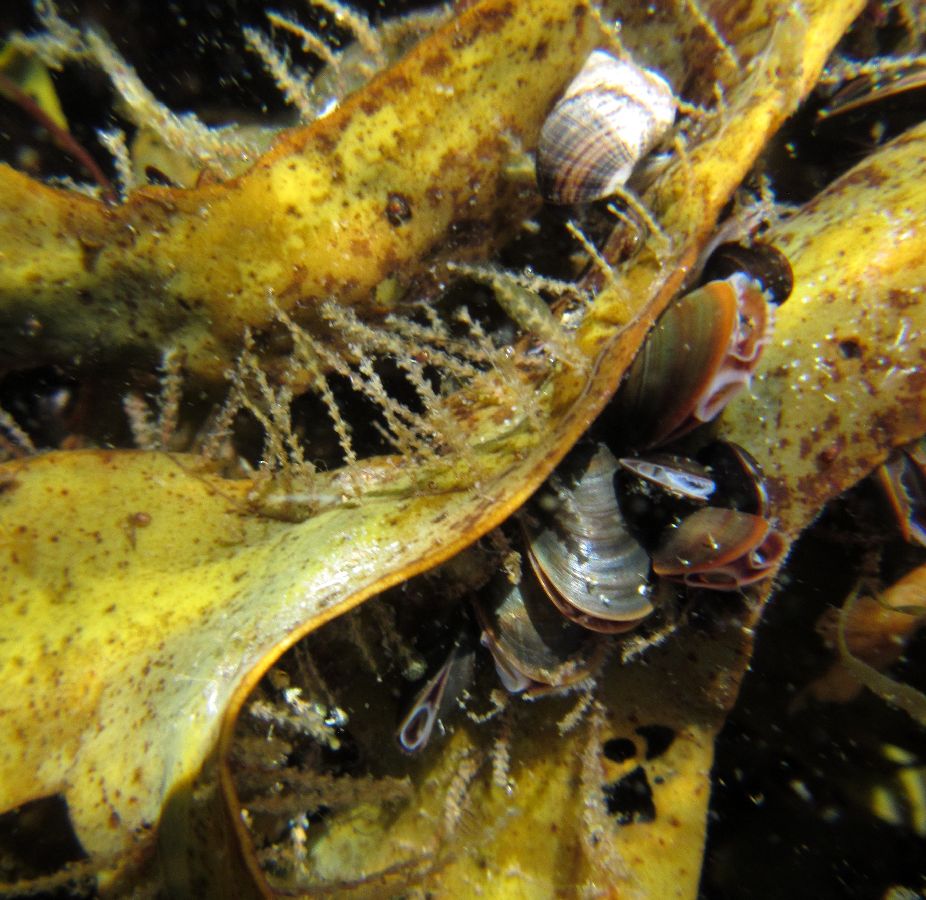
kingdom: Animalia
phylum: Cnidaria
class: Hydrozoa
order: Leptothecata
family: Sertulariidae
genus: Dynamena
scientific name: Dynamena pumila
